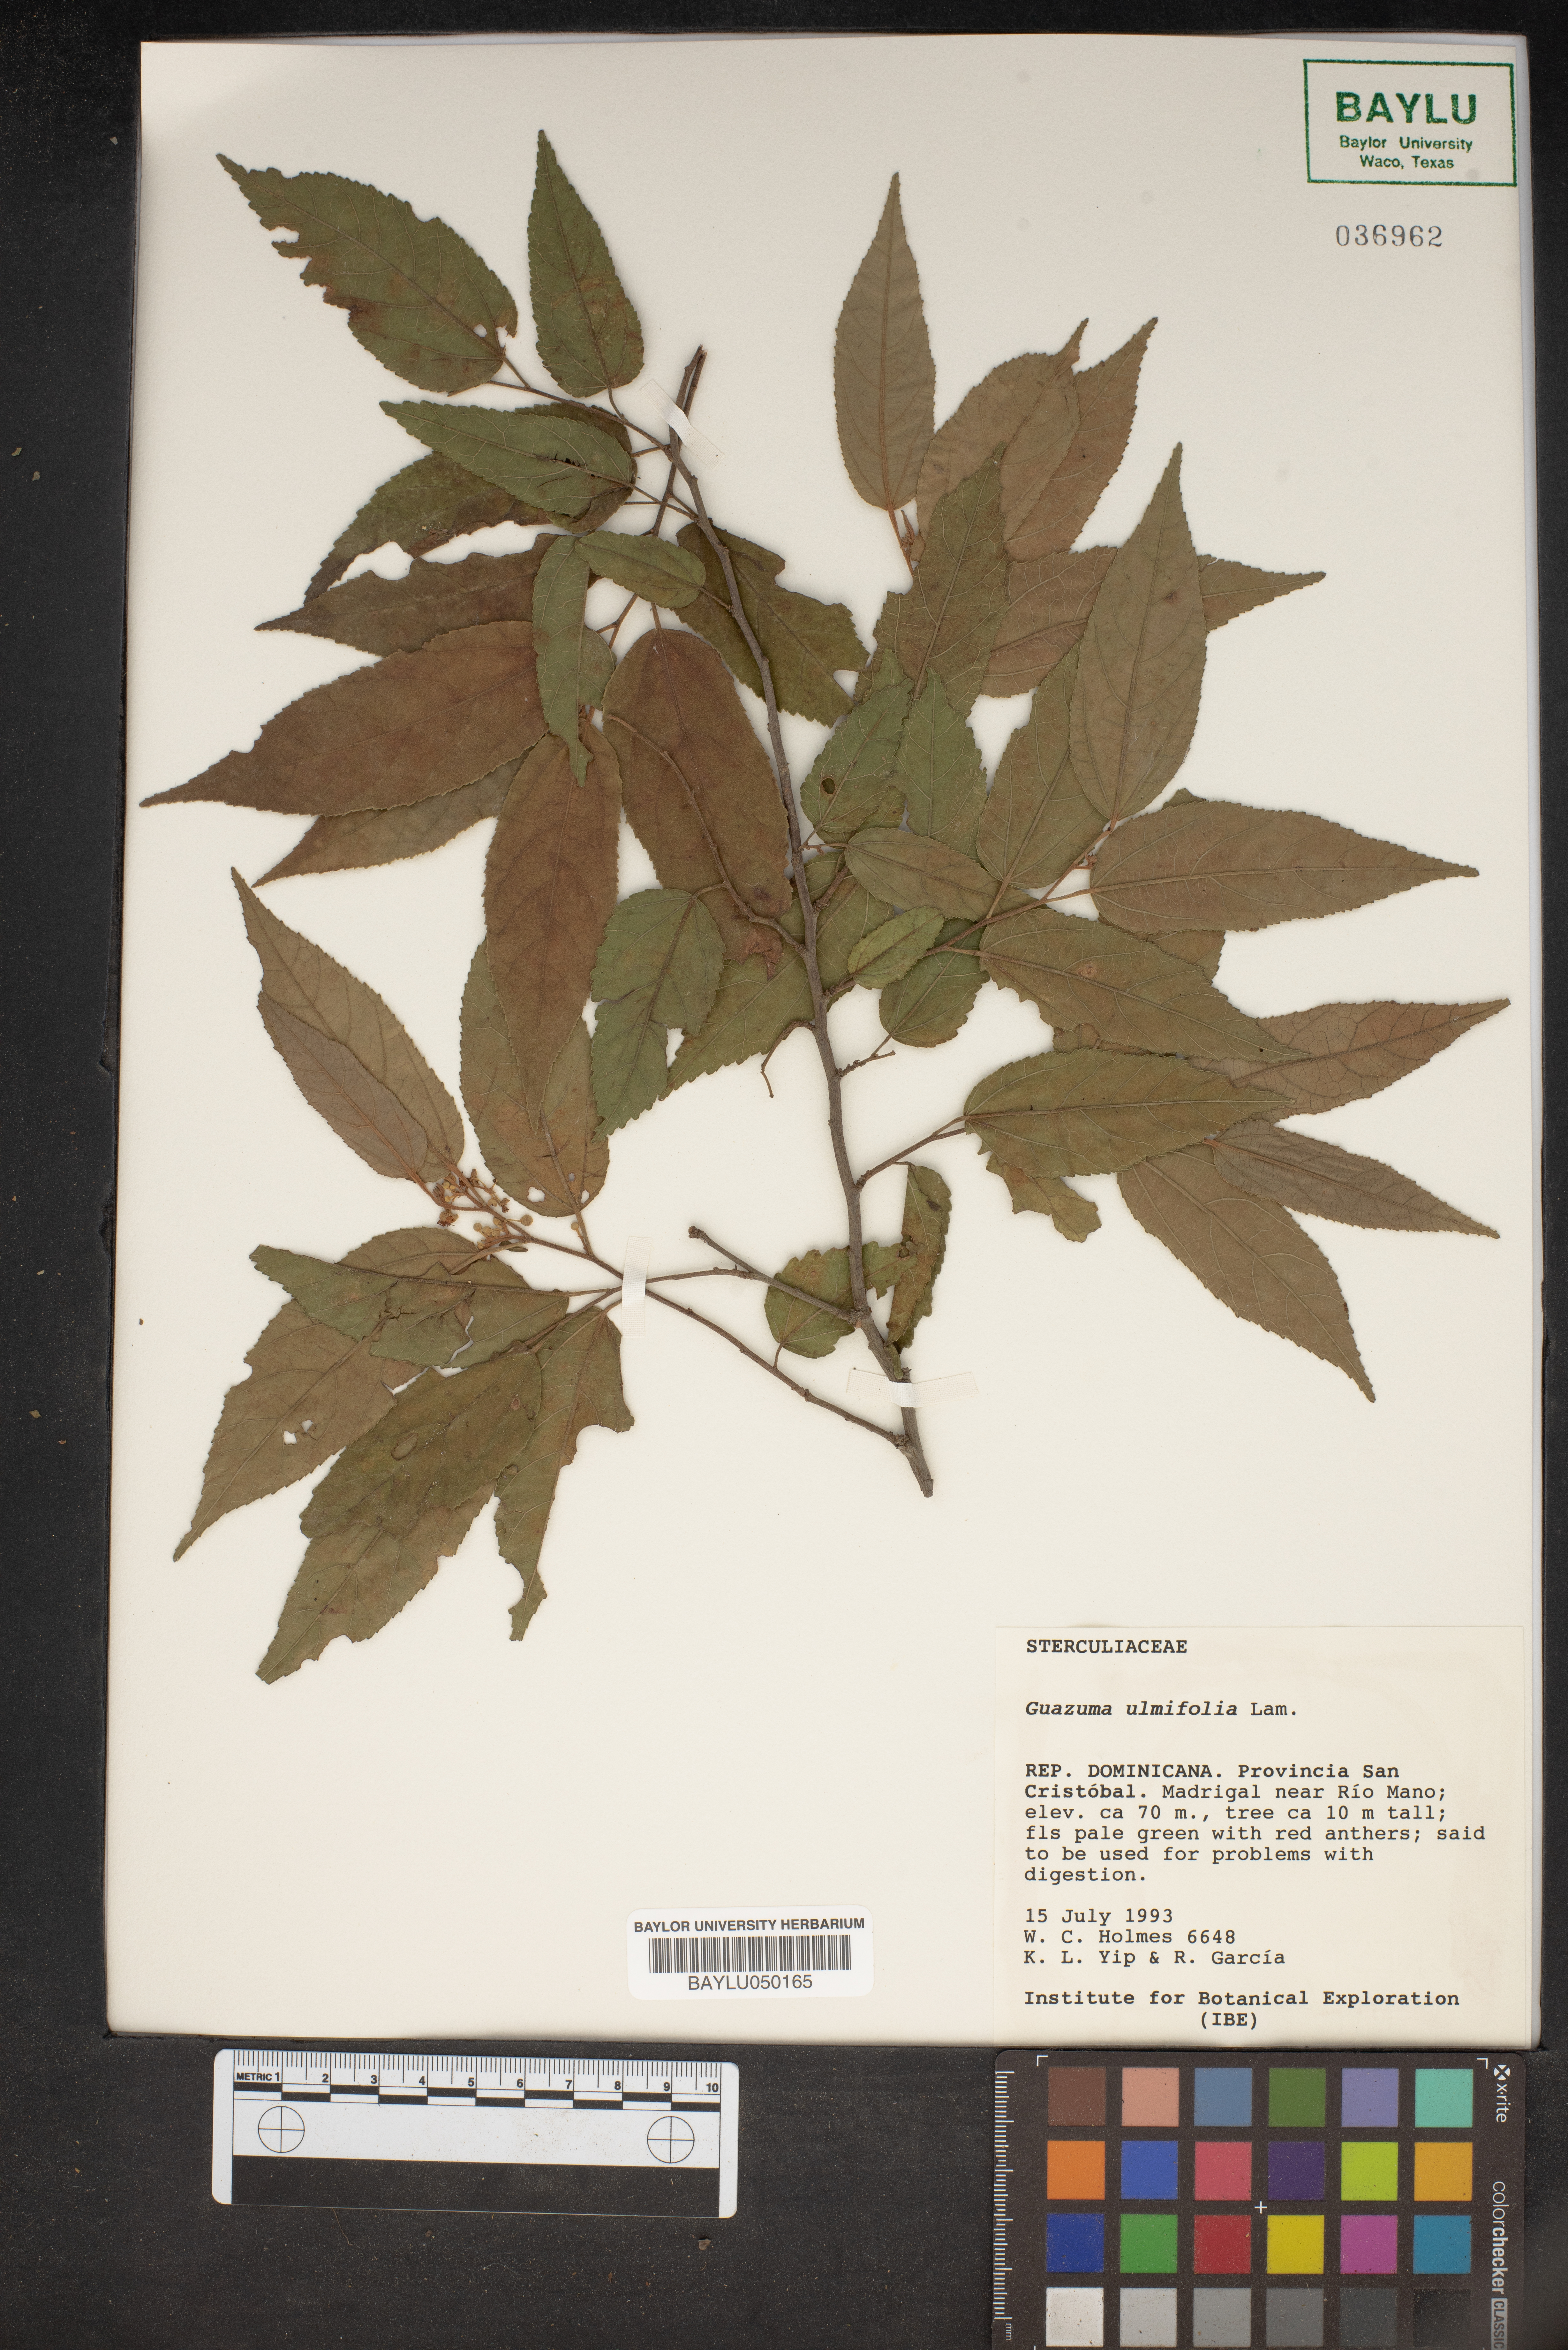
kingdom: Plantae
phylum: Tracheophyta
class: Magnoliopsida
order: Malvales
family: Malvaceae
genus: Guazuma
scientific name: Guazuma ulmifolia
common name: Bastard-cedar
